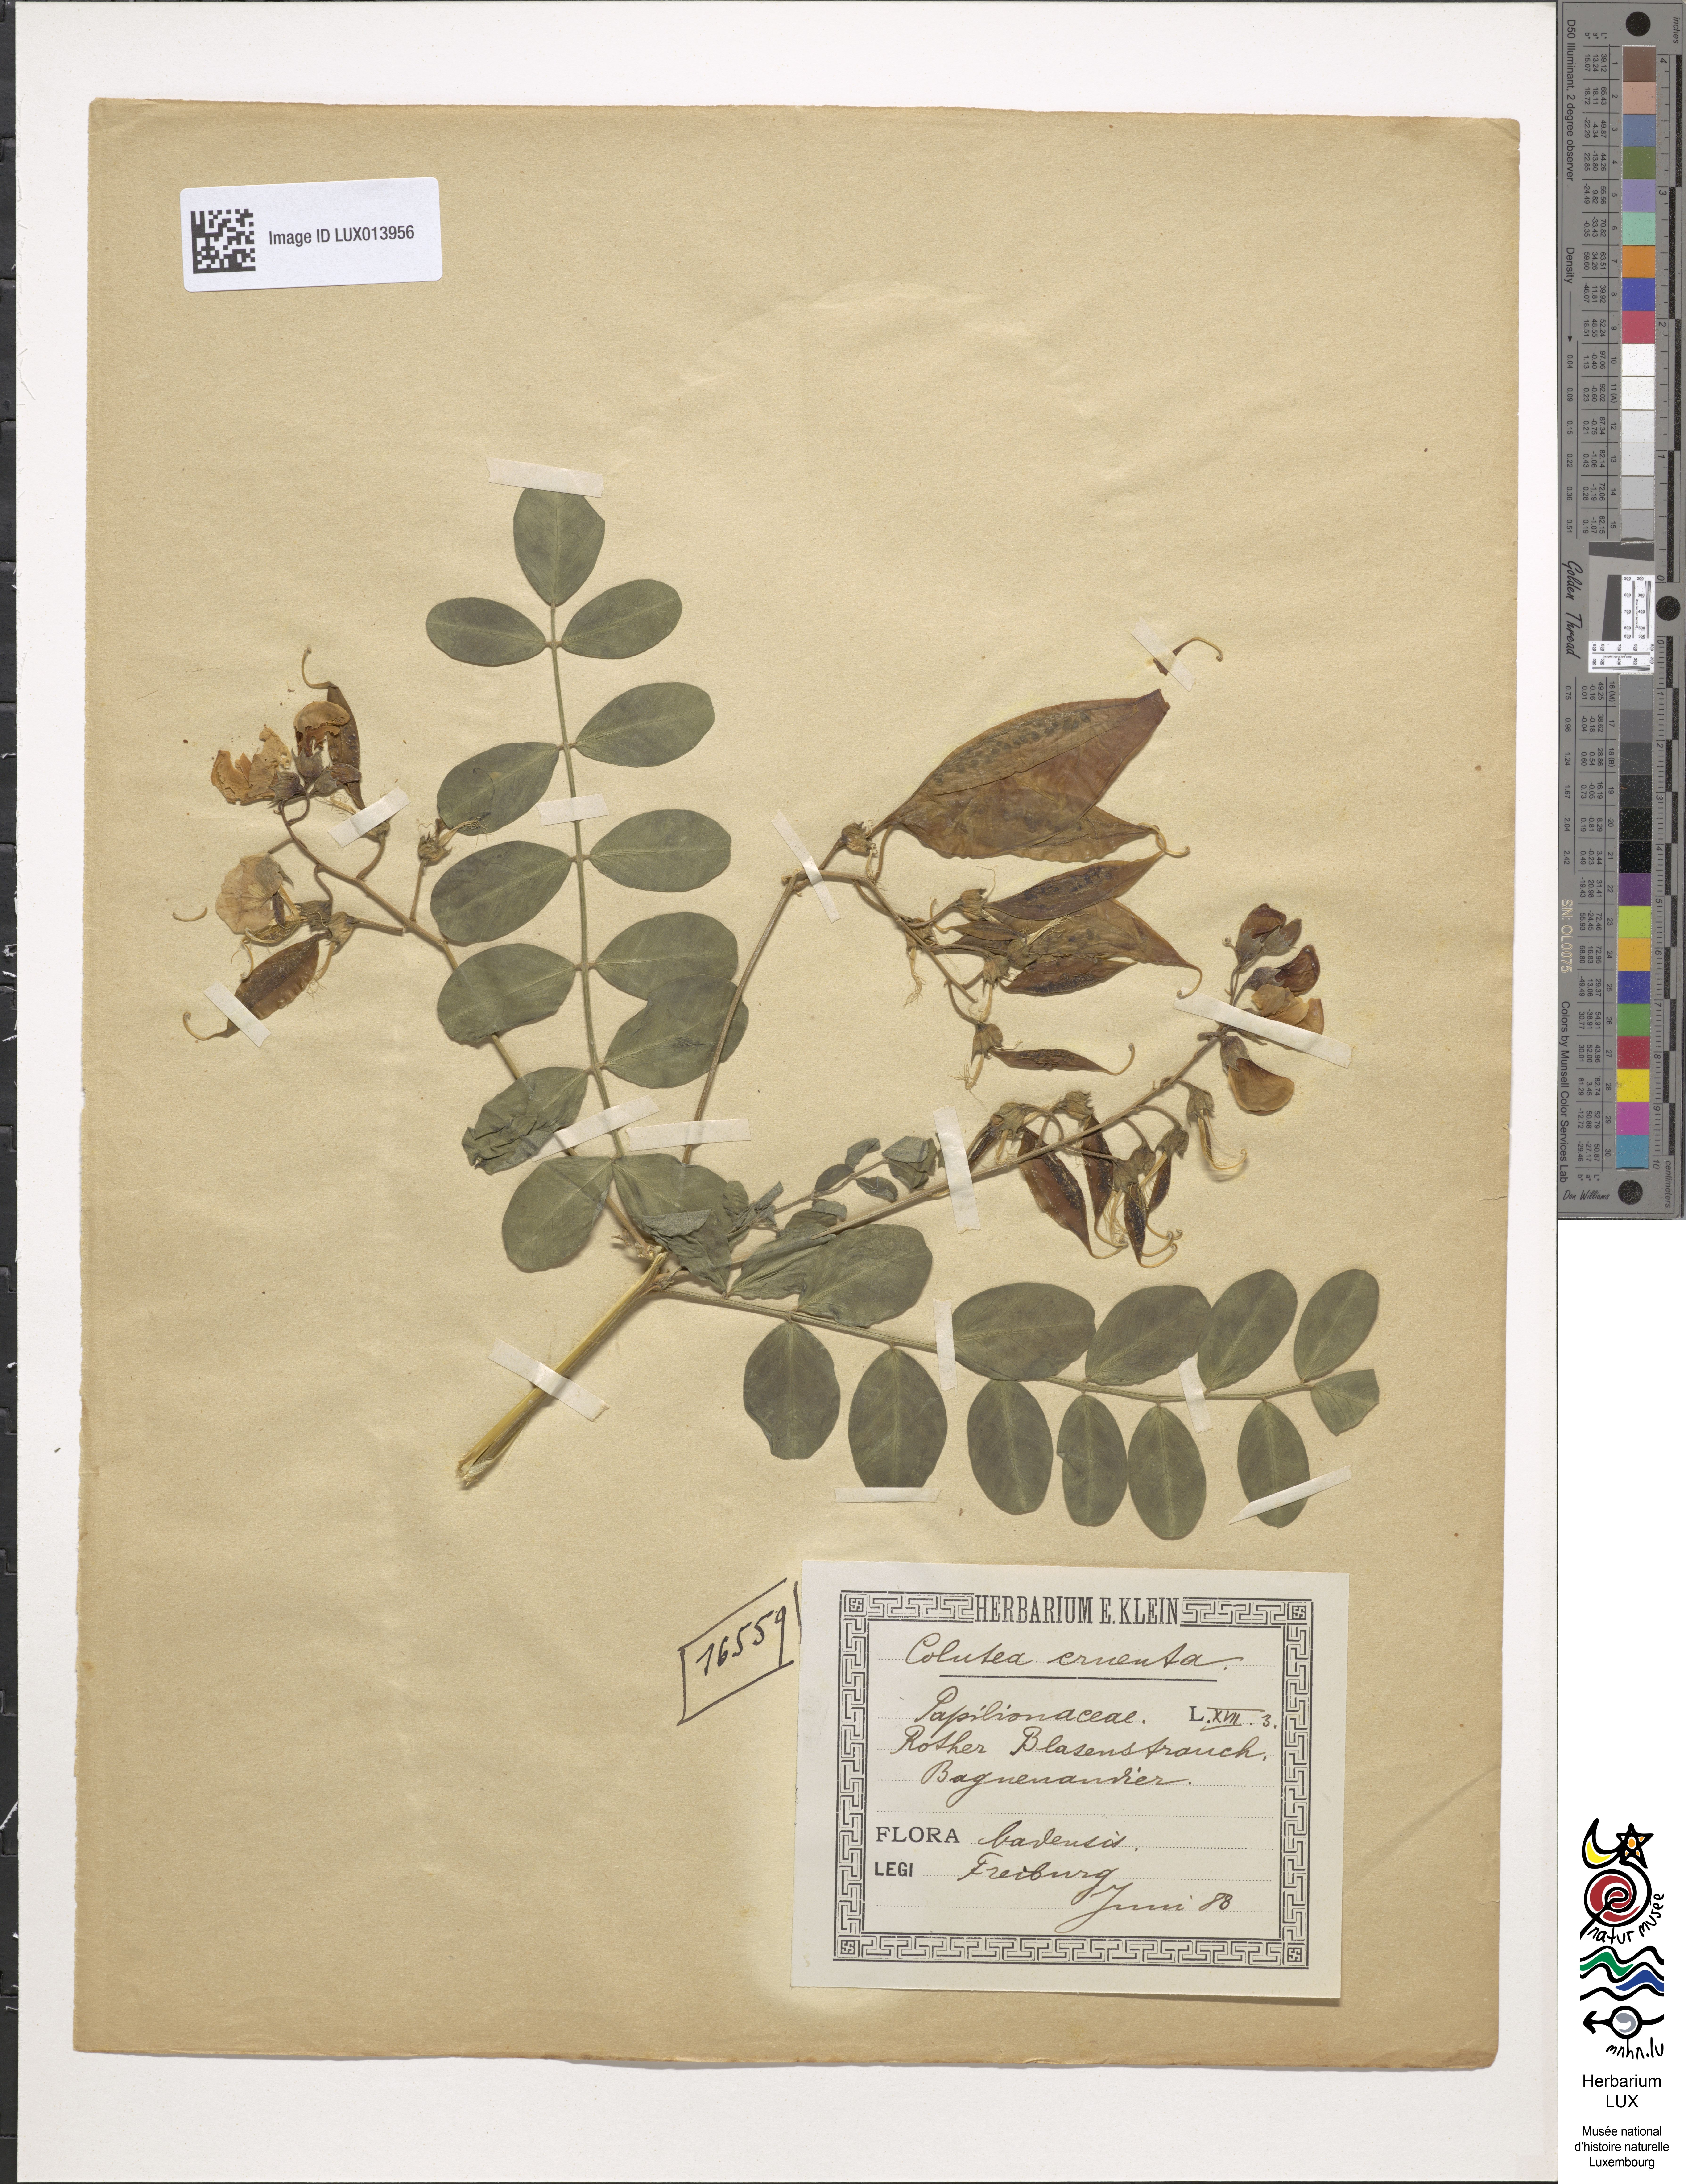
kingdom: Plantae
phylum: Tracheophyta
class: Magnoliopsida
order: Fabales
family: Fabaceae
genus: Colutea
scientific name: Colutea orientalis
